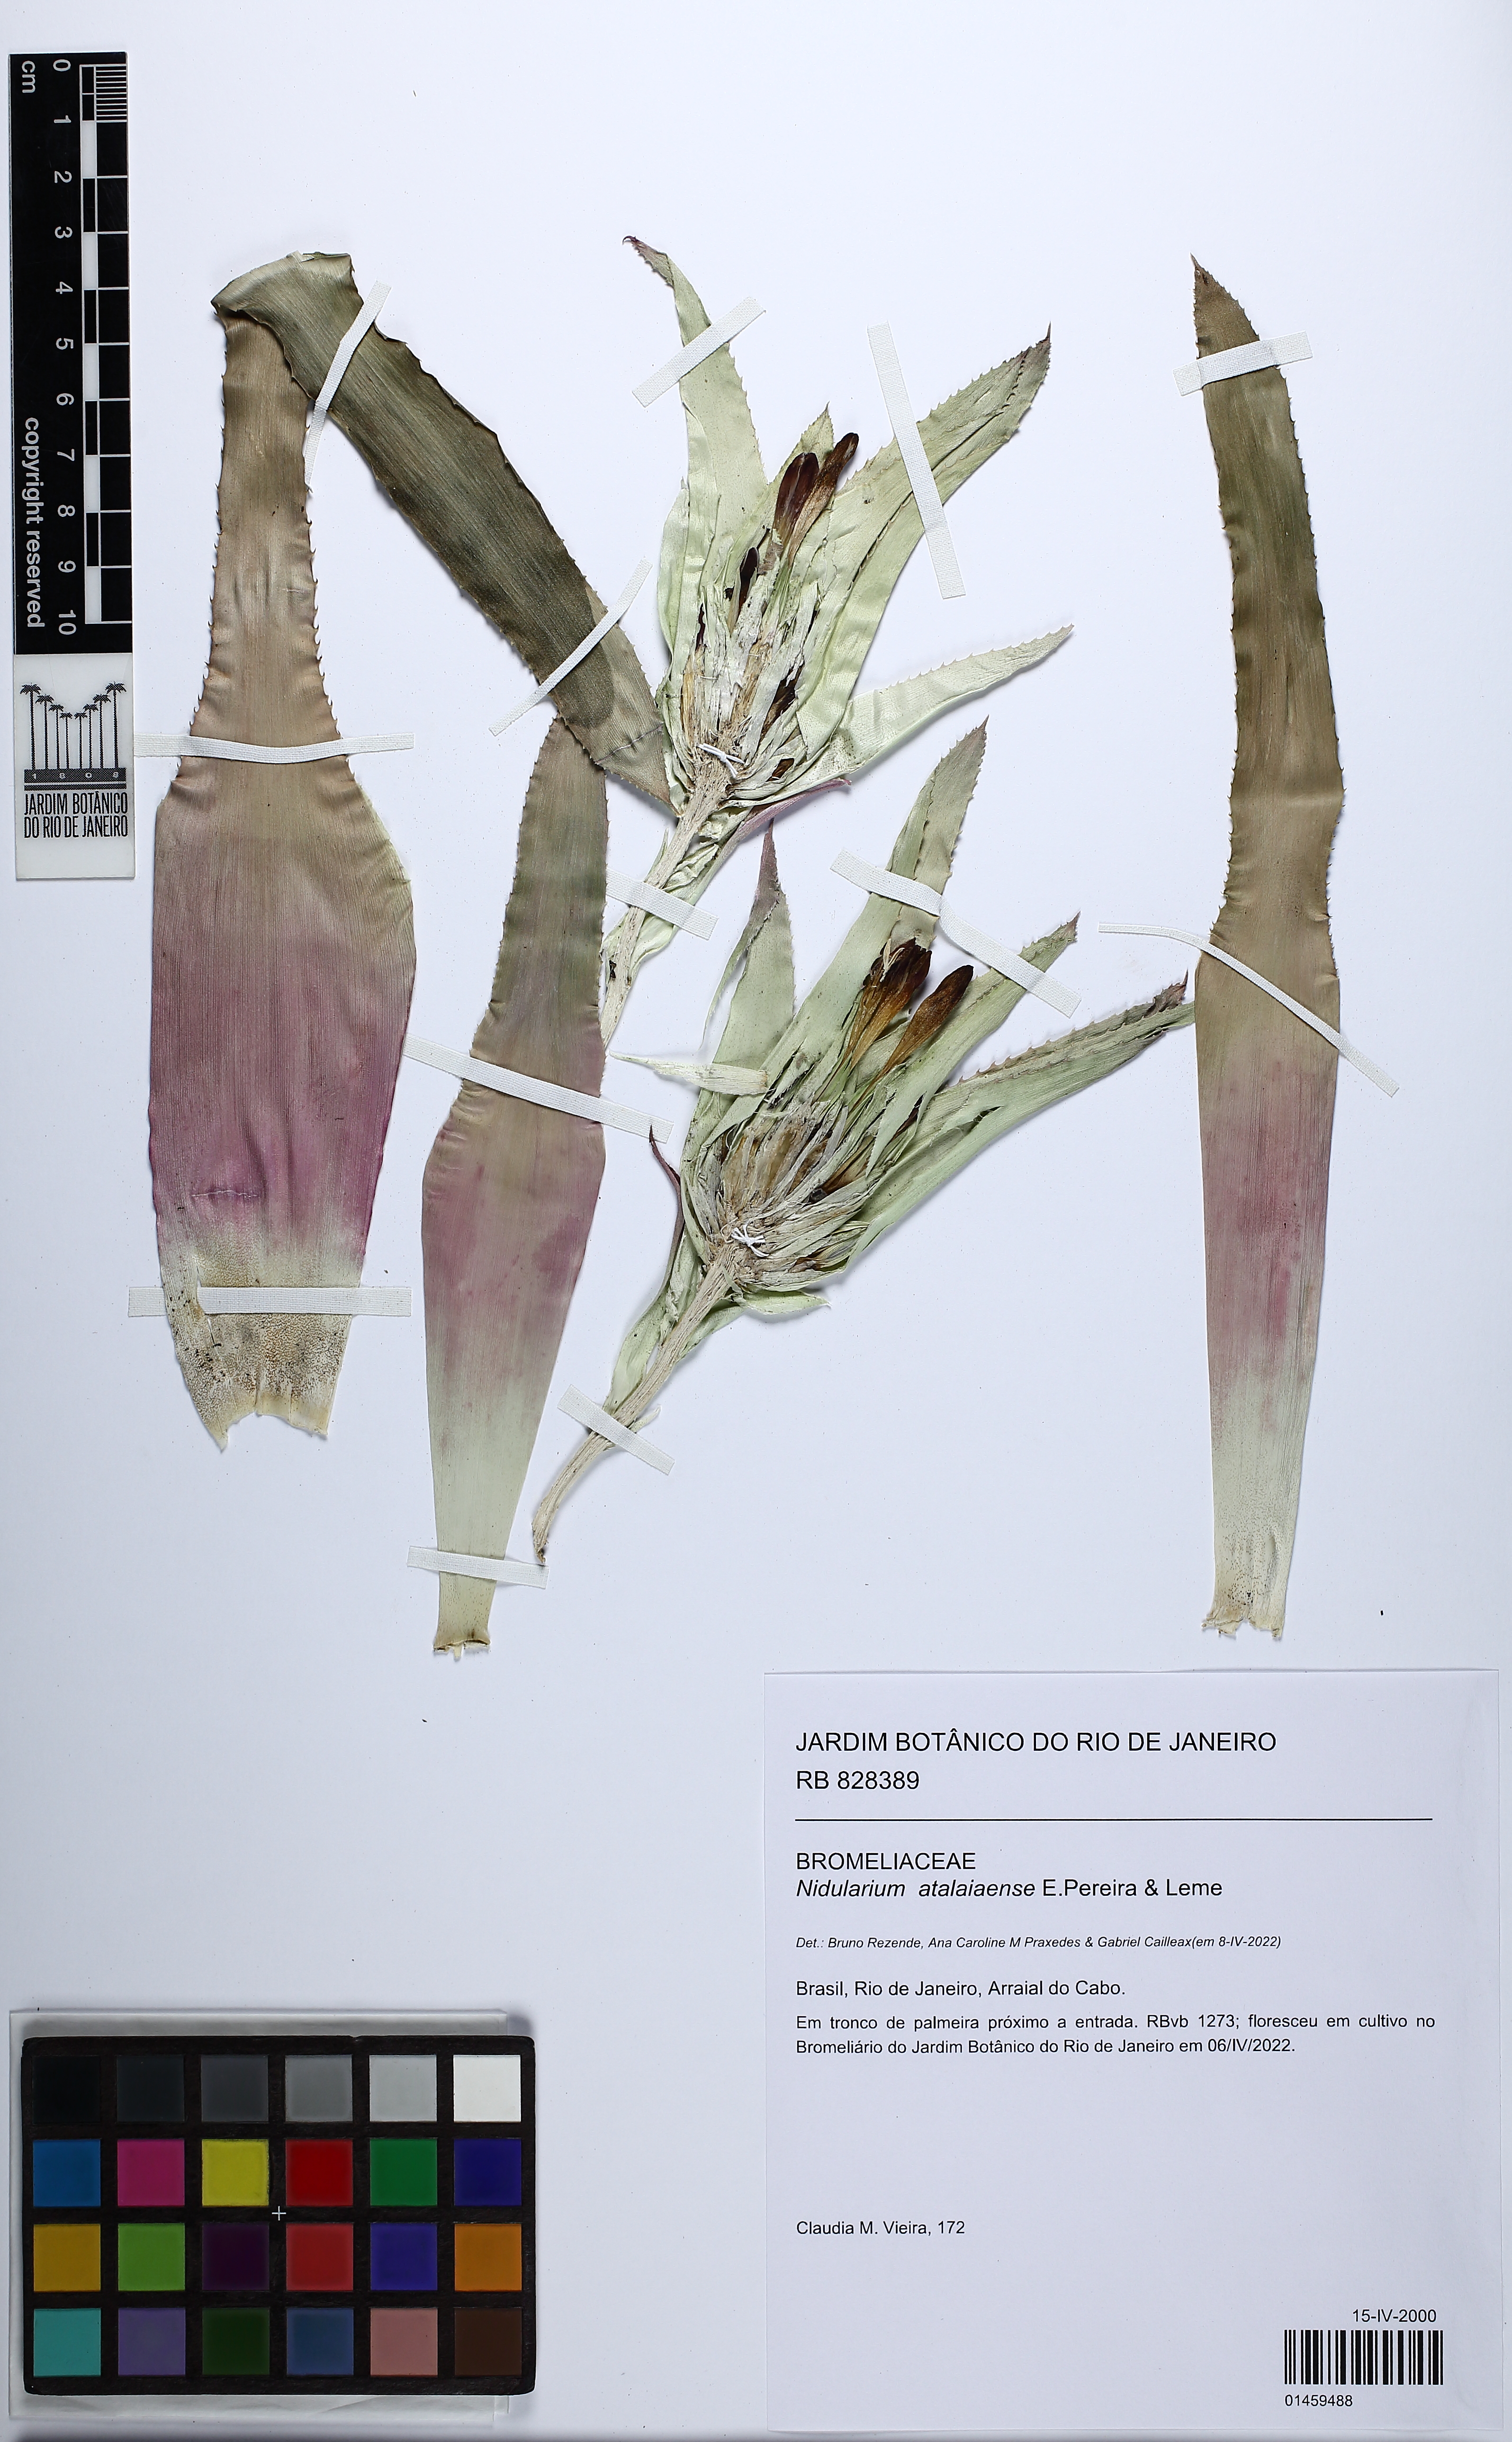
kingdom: Plantae
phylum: Tracheophyta
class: Liliopsida
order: Poales
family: Bromeliaceae
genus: Nidularium
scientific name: Nidularium atalaiaense
